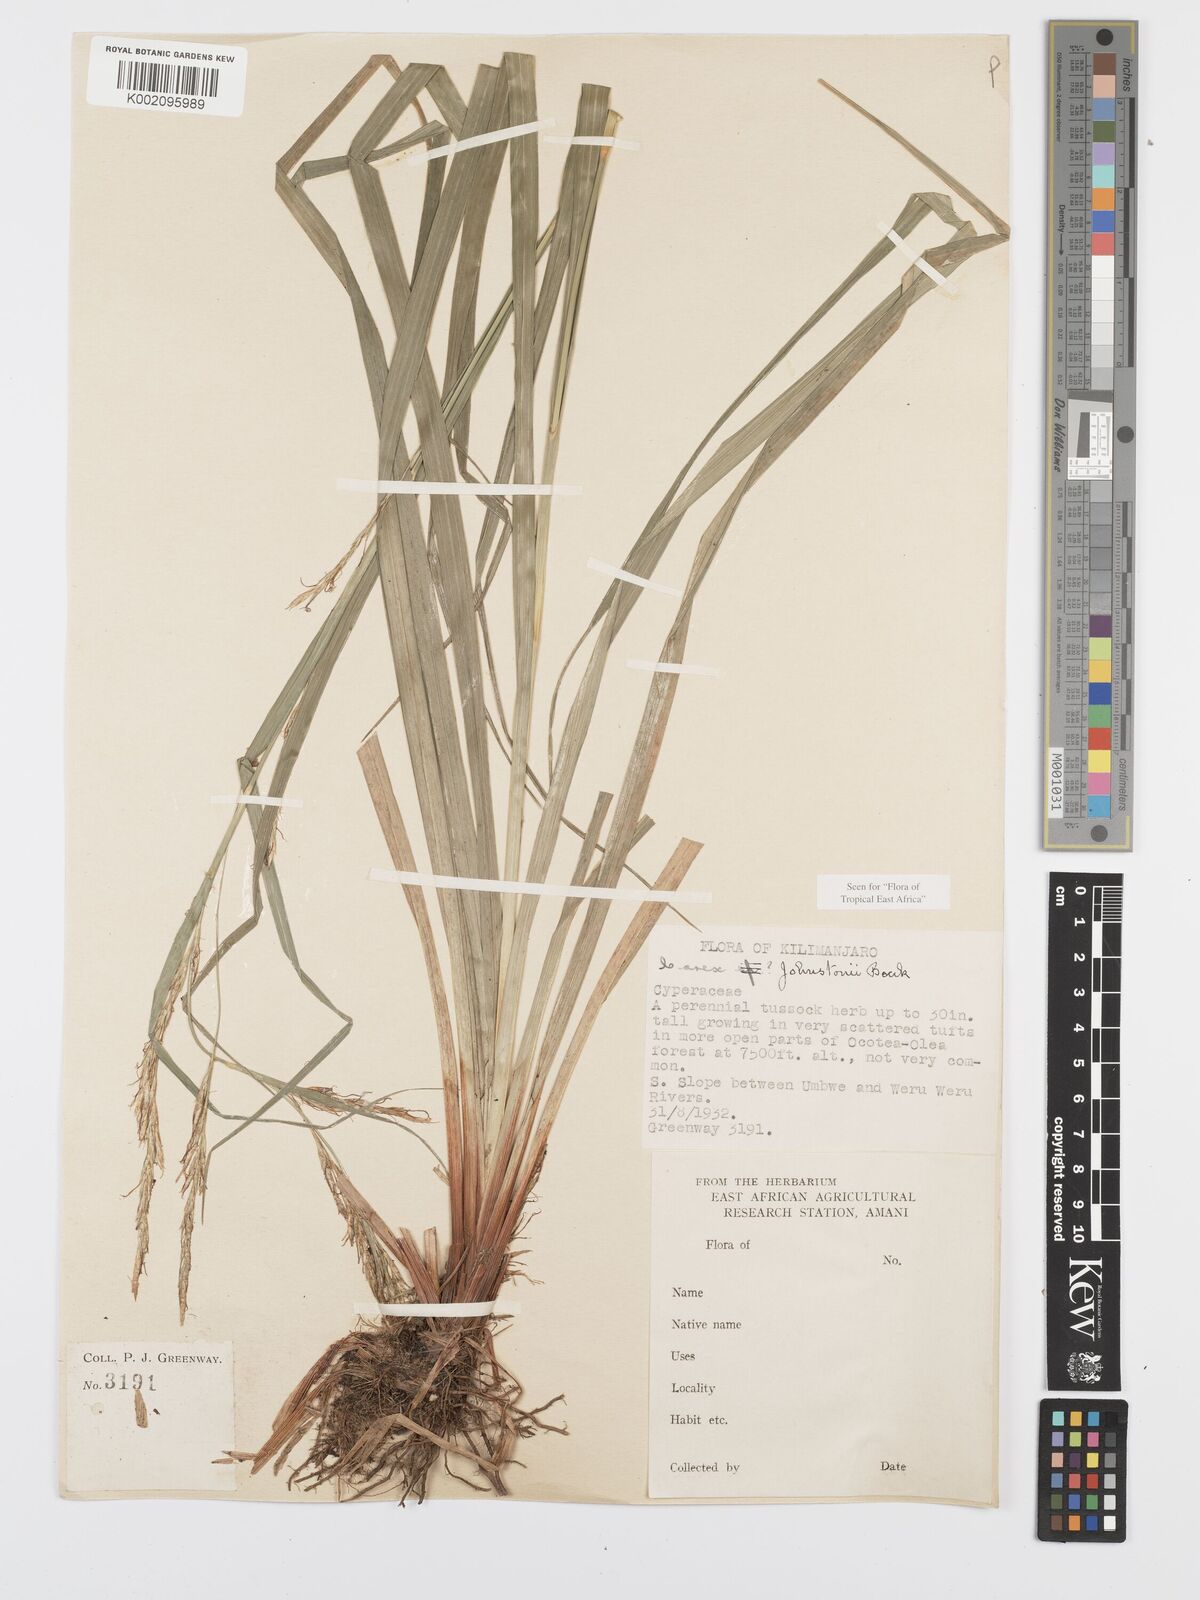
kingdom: Plantae
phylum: Tracheophyta
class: Liliopsida
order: Poales
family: Cyperaceae
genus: Carex
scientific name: Carex johnstonii
